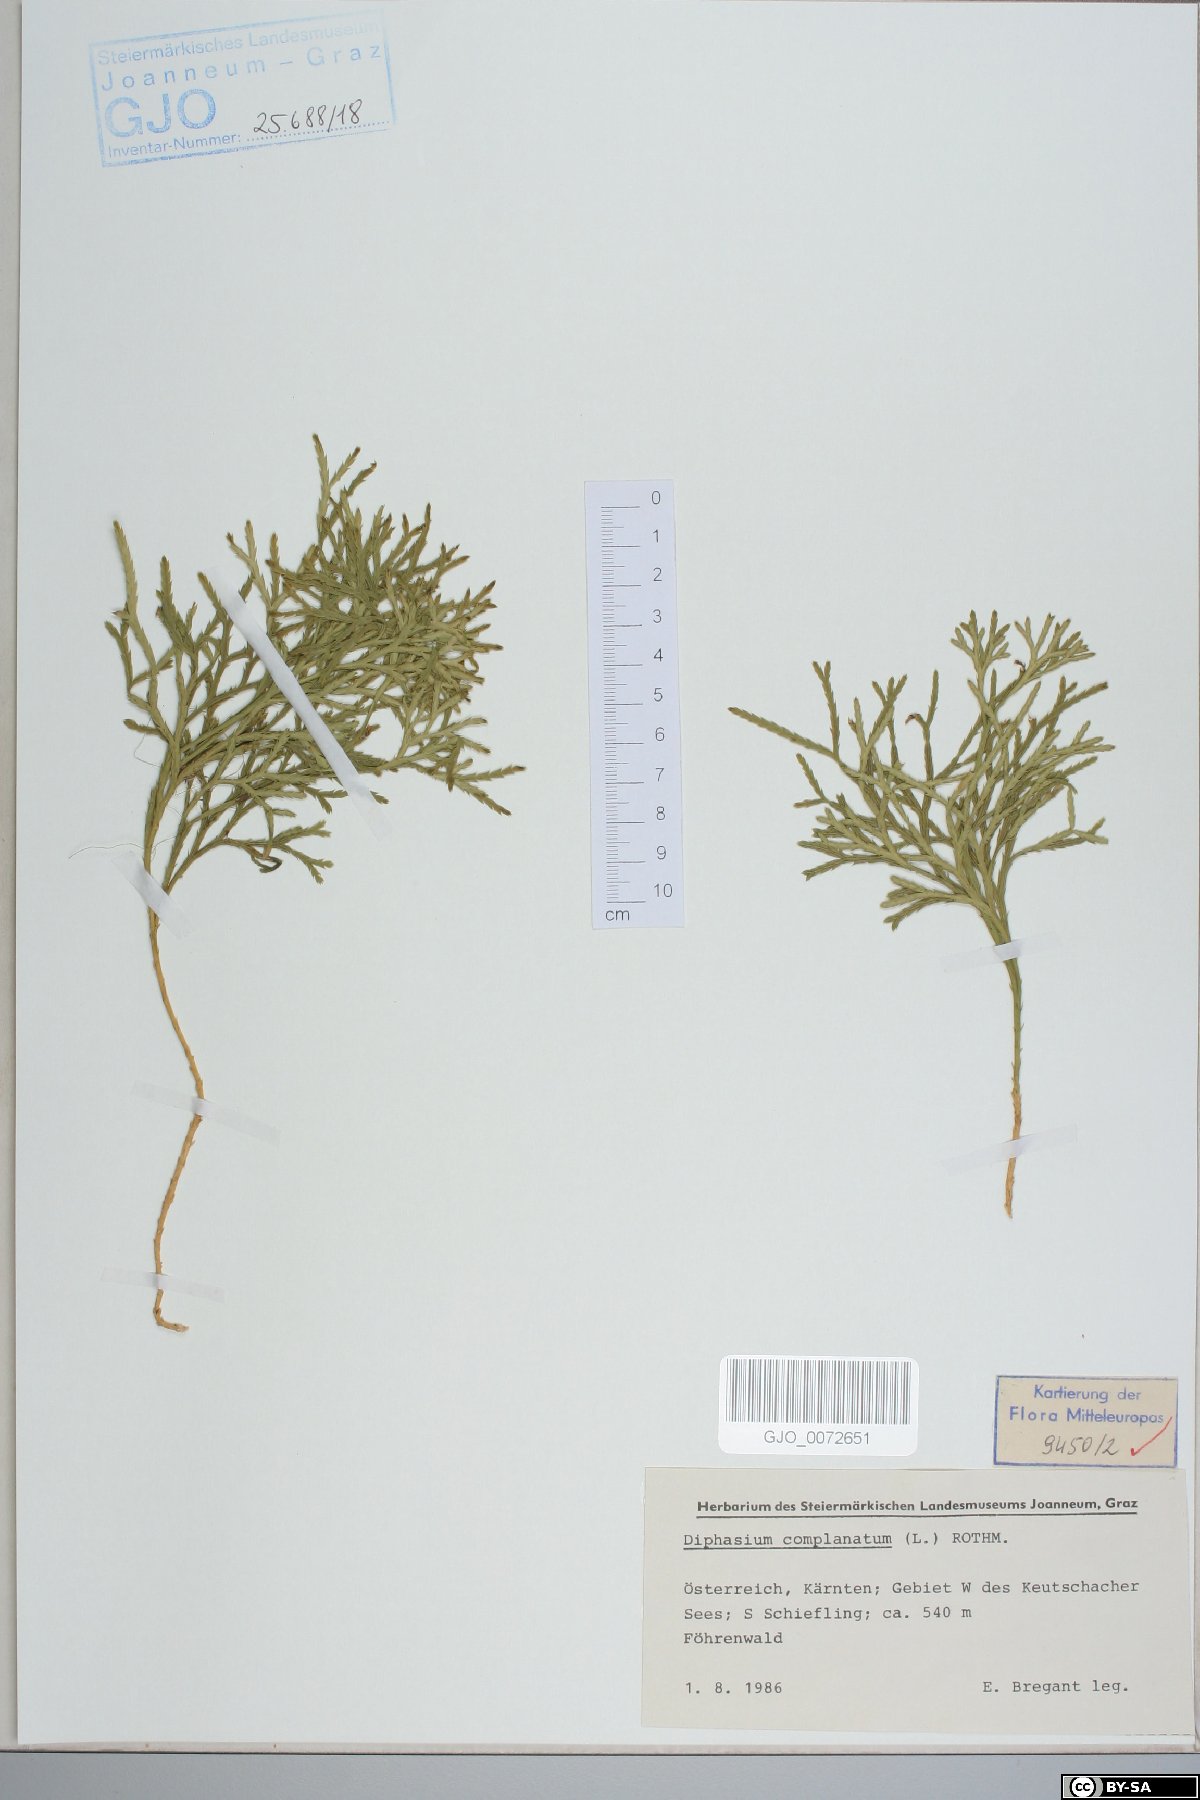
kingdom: Plantae
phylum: Tracheophyta
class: Lycopodiopsida
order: Lycopodiales
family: Lycopodiaceae
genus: Diphasiastrum
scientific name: Diphasiastrum complanatum
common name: Northern running-pine
